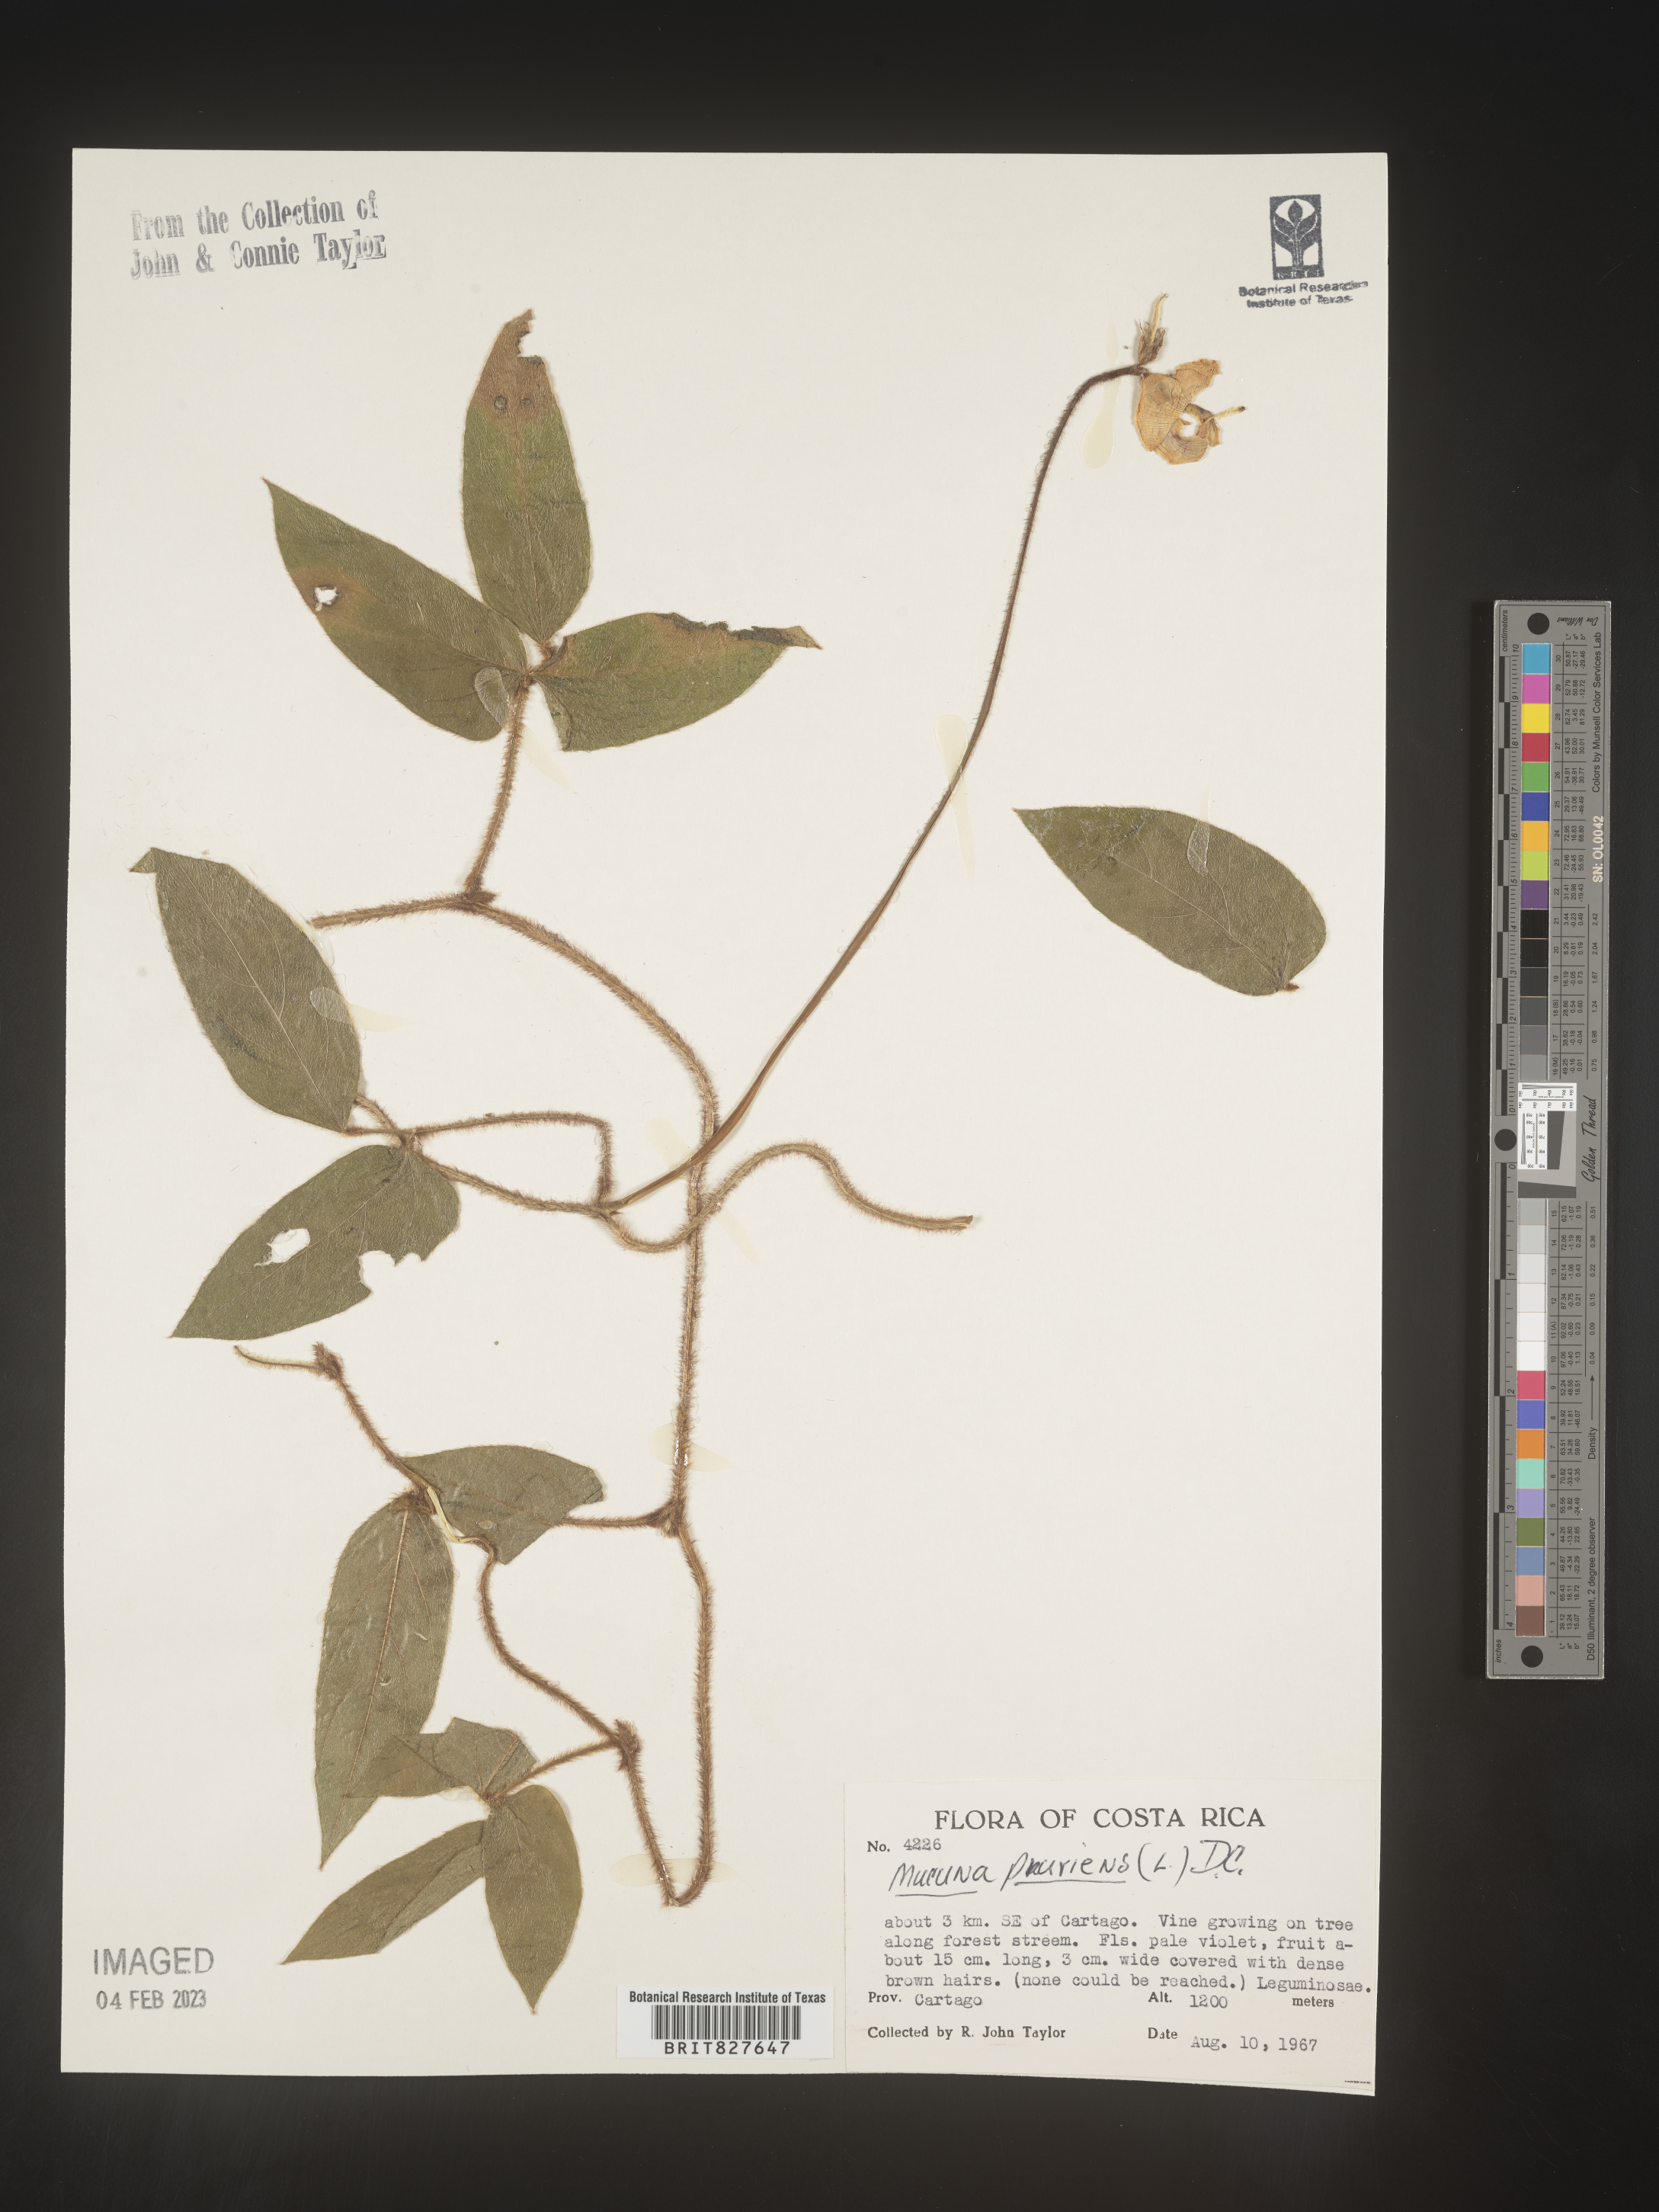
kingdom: Plantae
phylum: Tracheophyta
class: Magnoliopsida
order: Fabales
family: Fabaceae
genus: Mucuna
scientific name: Mucuna
